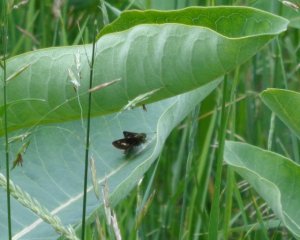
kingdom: Animalia
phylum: Arthropoda
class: Insecta
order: Lepidoptera
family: Hesperiidae
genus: Vernia
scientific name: Vernia verna
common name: Little Glassywing
